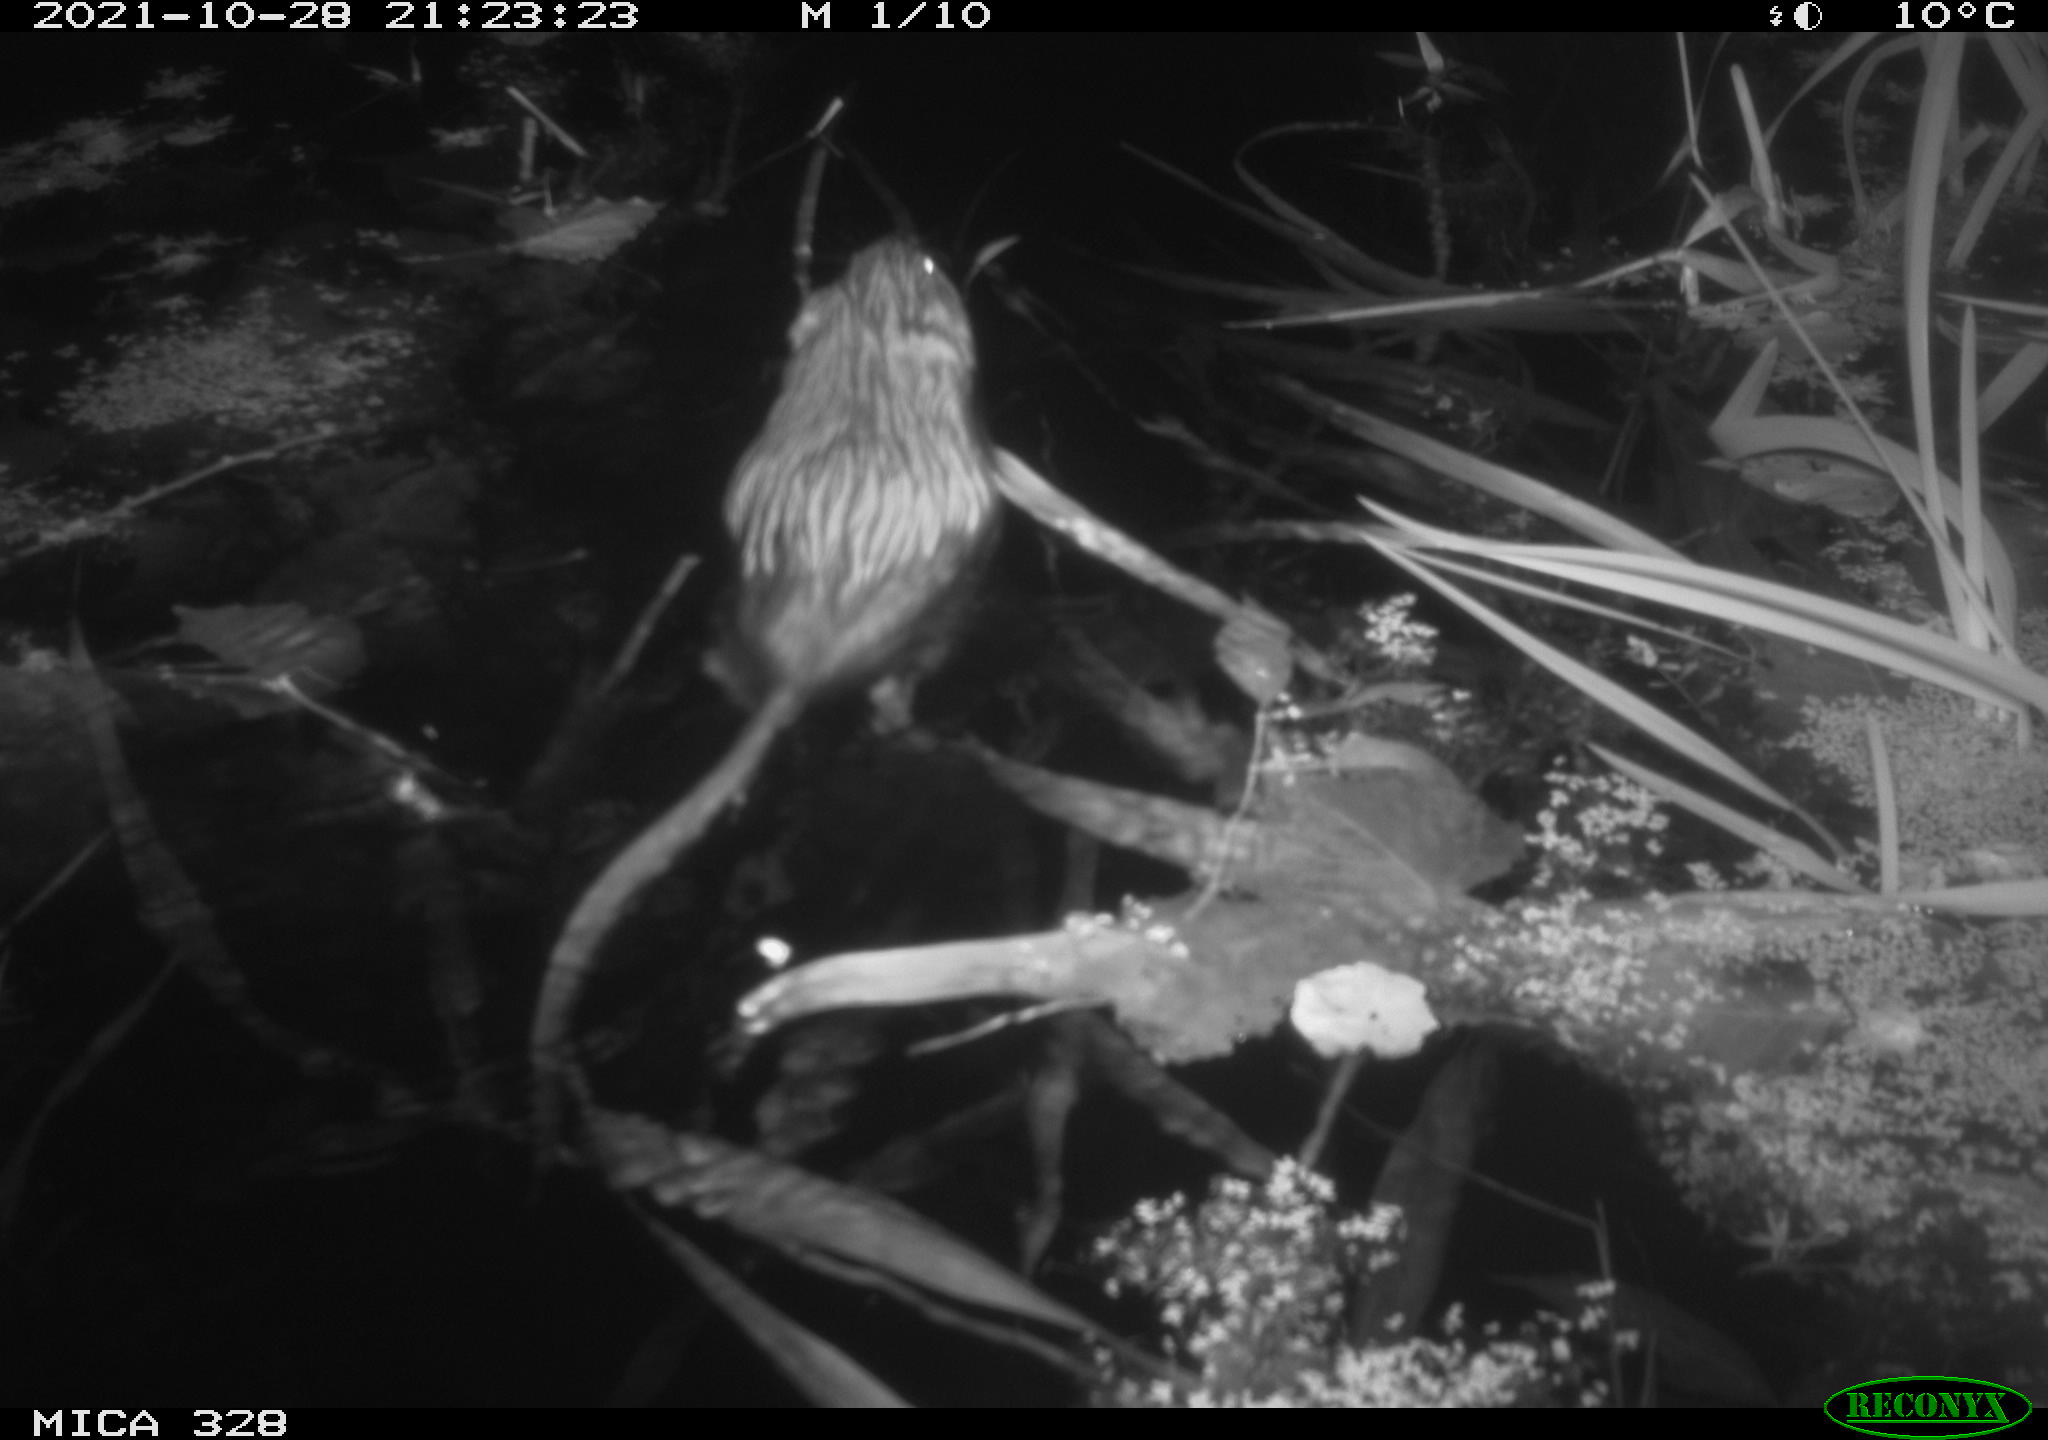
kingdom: Animalia
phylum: Chordata
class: Mammalia
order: Rodentia
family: Cricetidae
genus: Ondatra
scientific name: Ondatra zibethicus
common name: Muskrat
